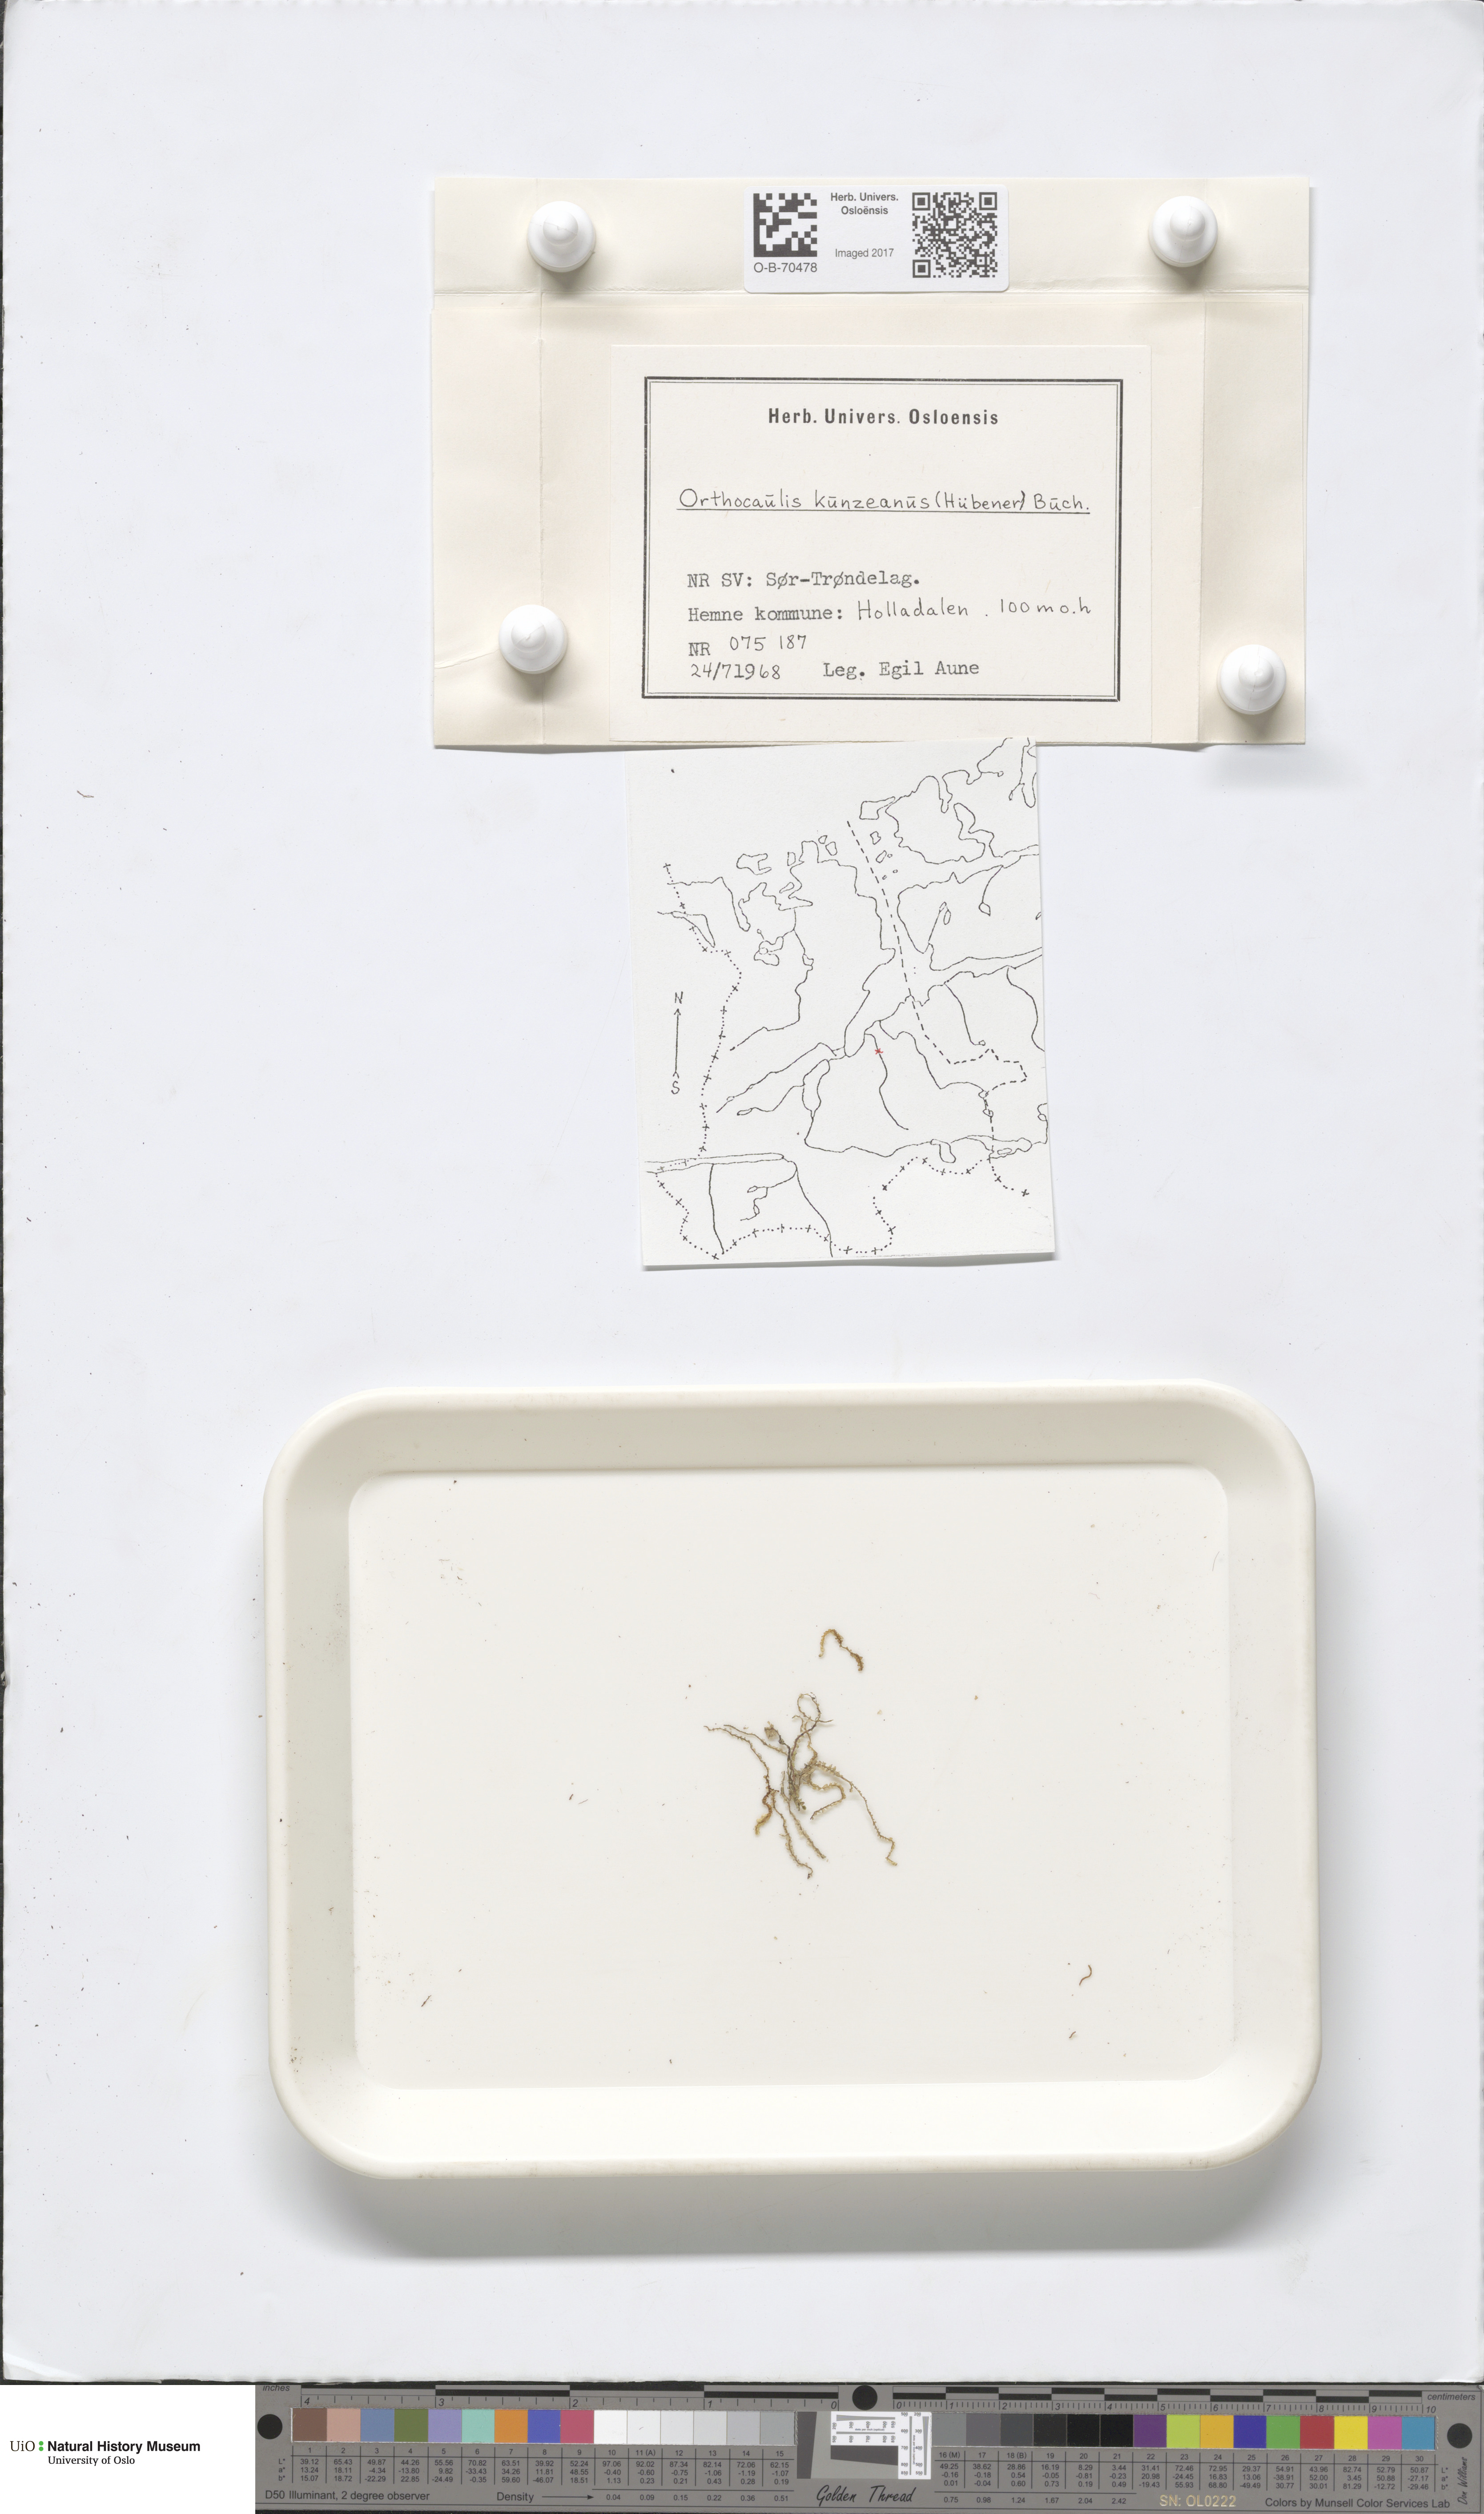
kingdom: Plantae
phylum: Marchantiophyta
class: Jungermanniopsida
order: Jungermanniales
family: Anastrophyllaceae
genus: Schljakovia
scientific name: Schljakovia kunzeana
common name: Kunze's pawwort
